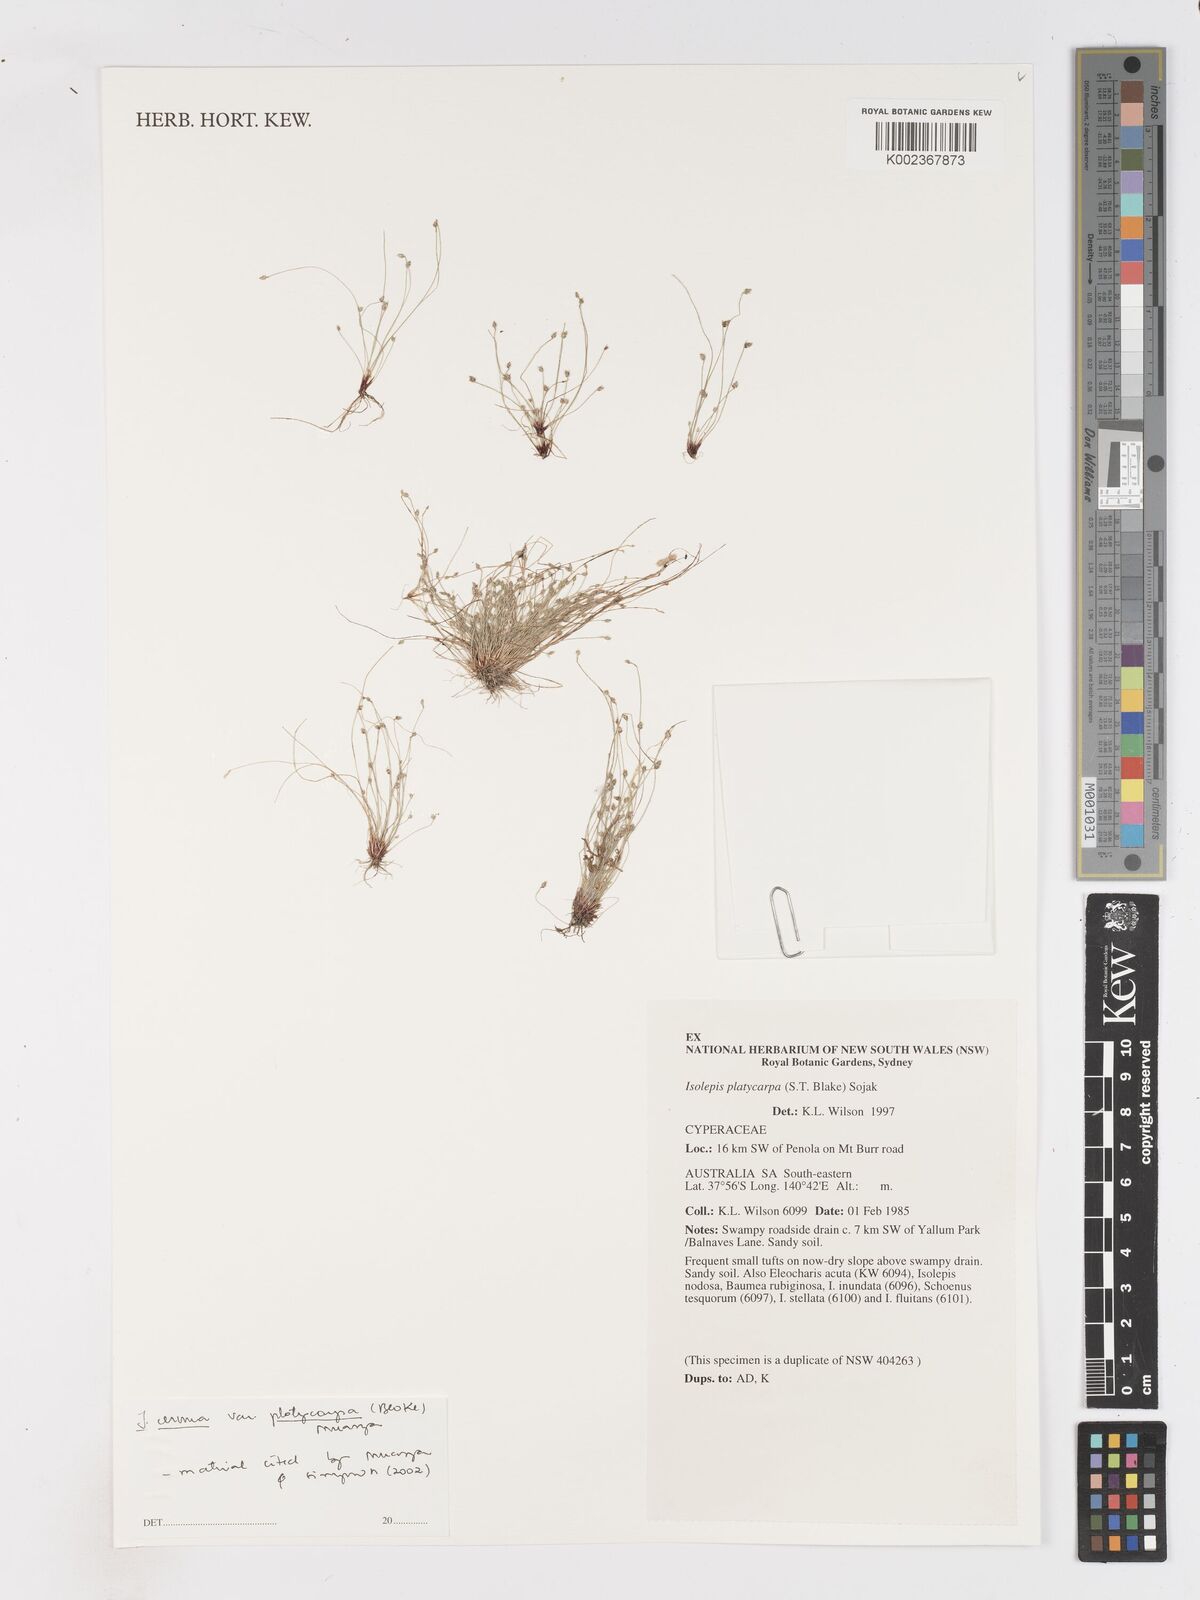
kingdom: Plantae
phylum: Tracheophyta
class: Liliopsida
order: Poales
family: Cyperaceae
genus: Isolepis
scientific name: Isolepis cernua
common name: Slender club-rush
